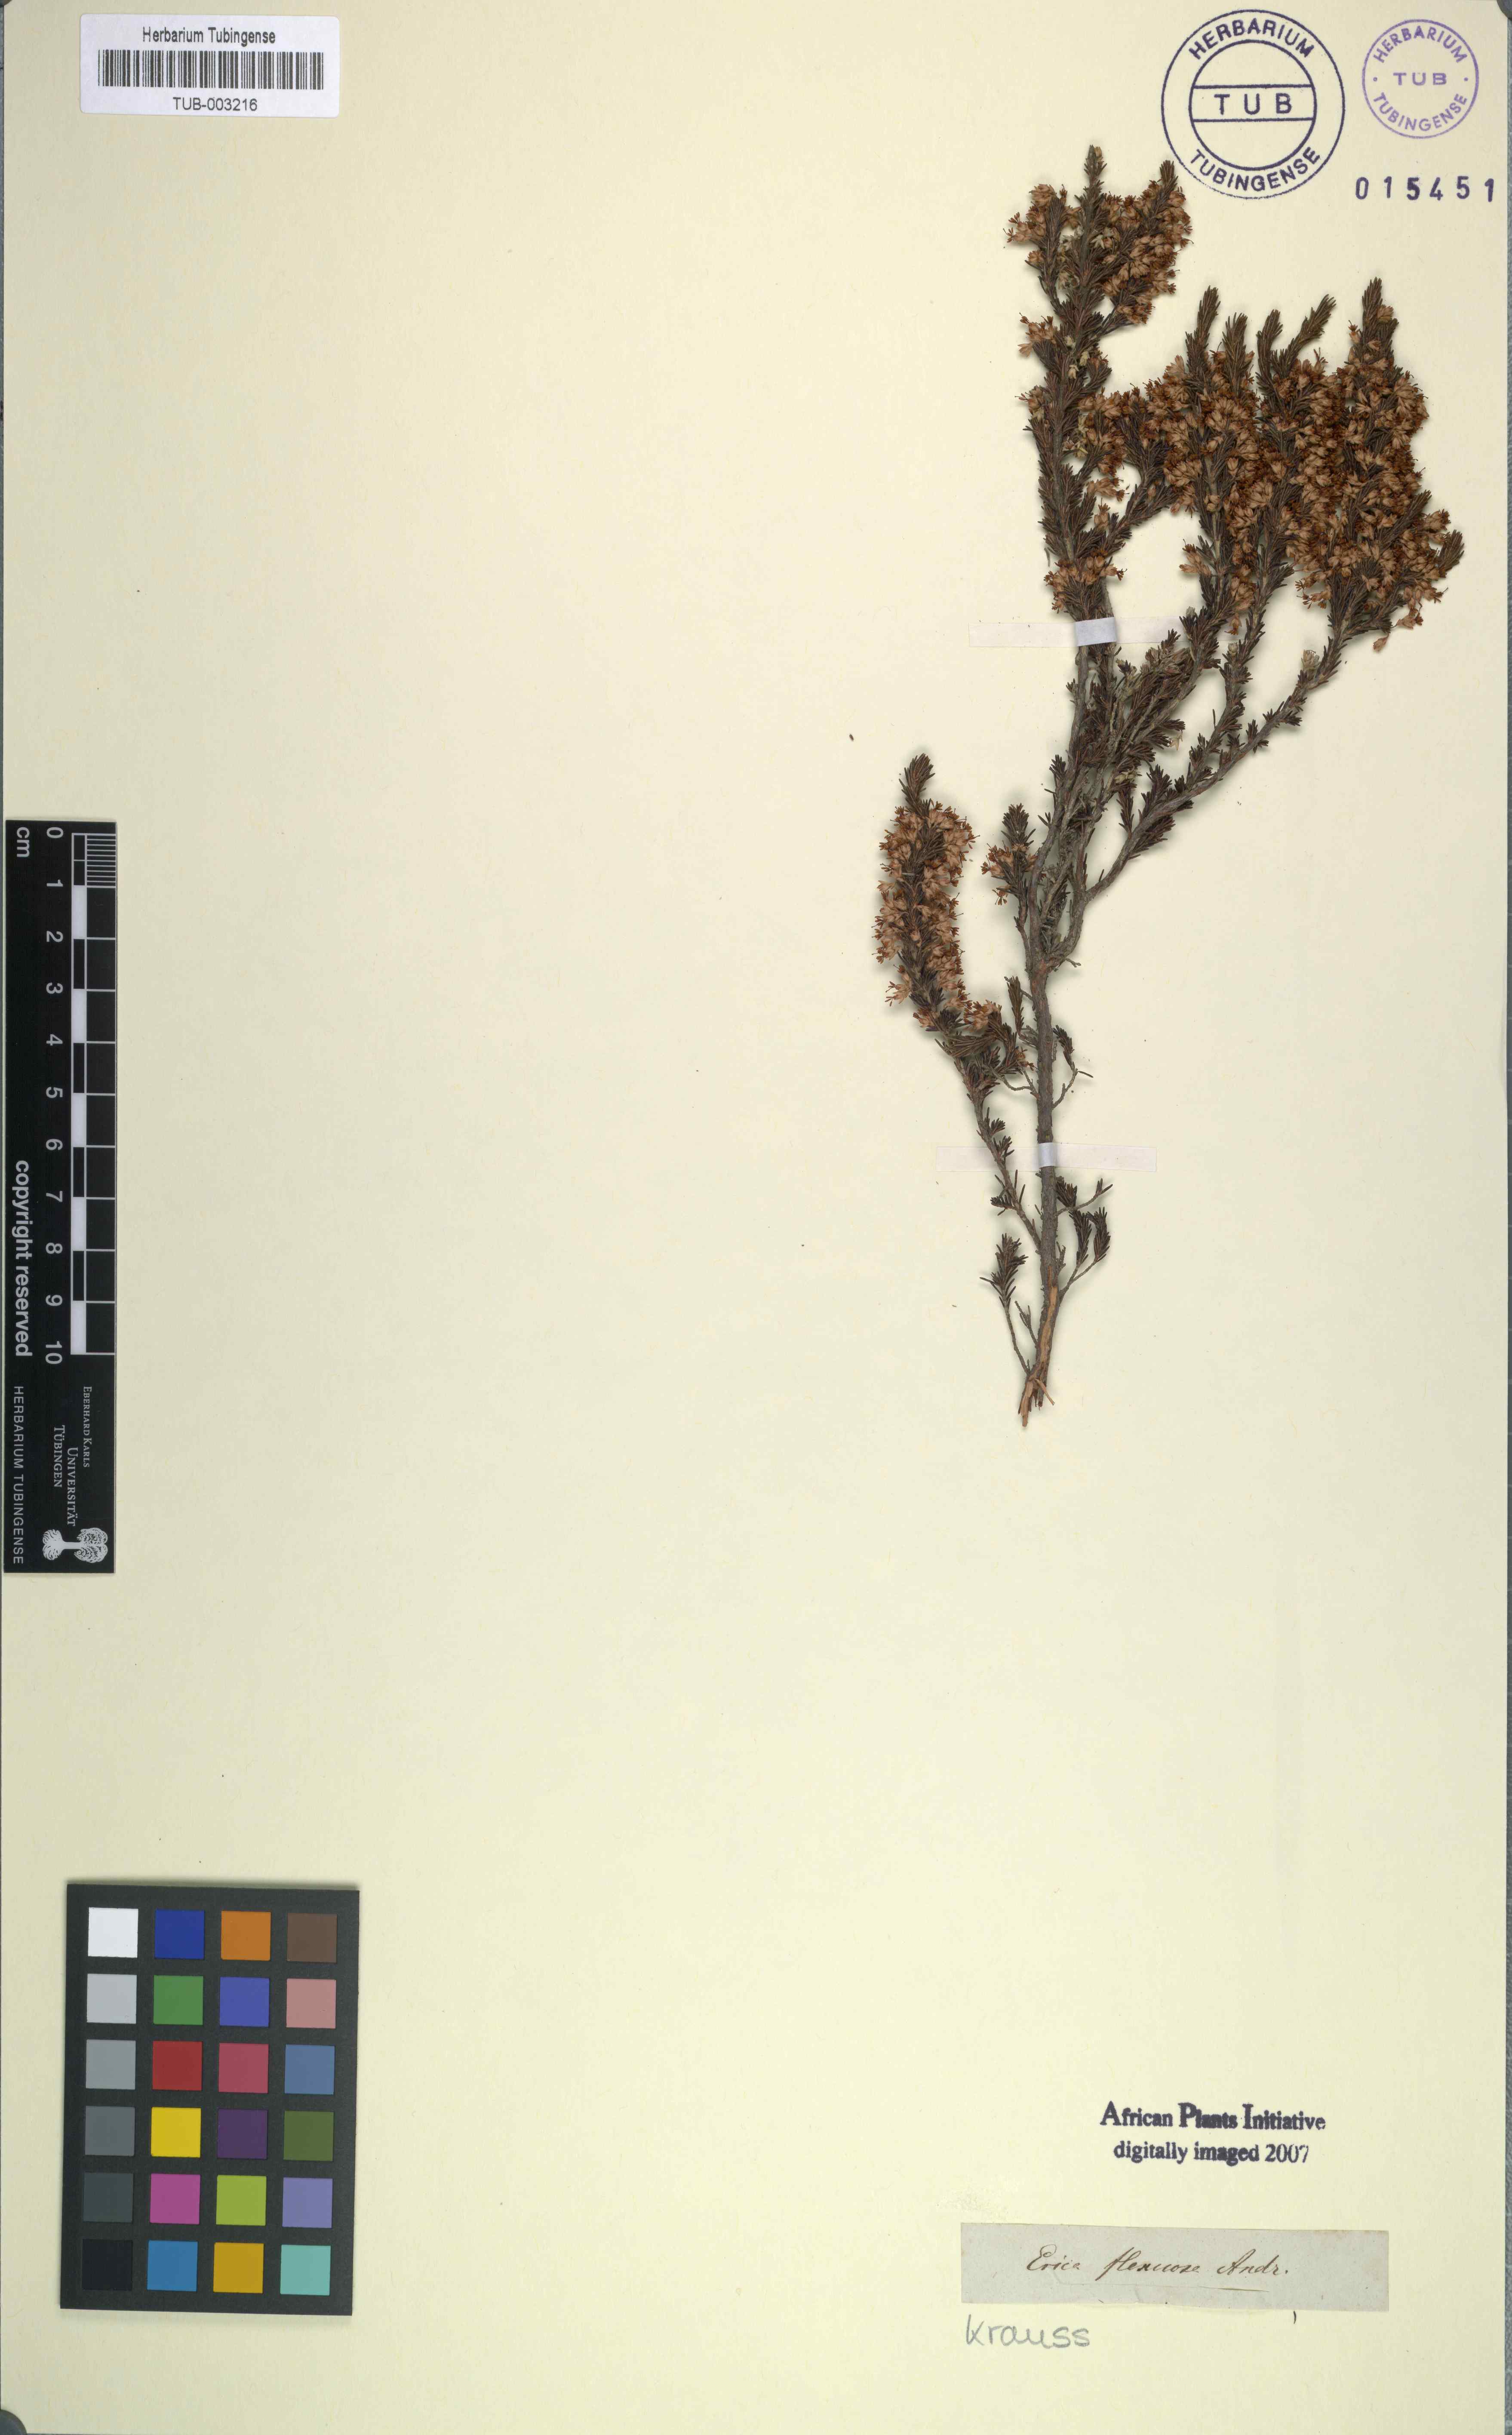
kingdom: Plantae
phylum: Tracheophyta
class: Magnoliopsida
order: Ericales
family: Ericaceae
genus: Erica
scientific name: Erica imbricata
